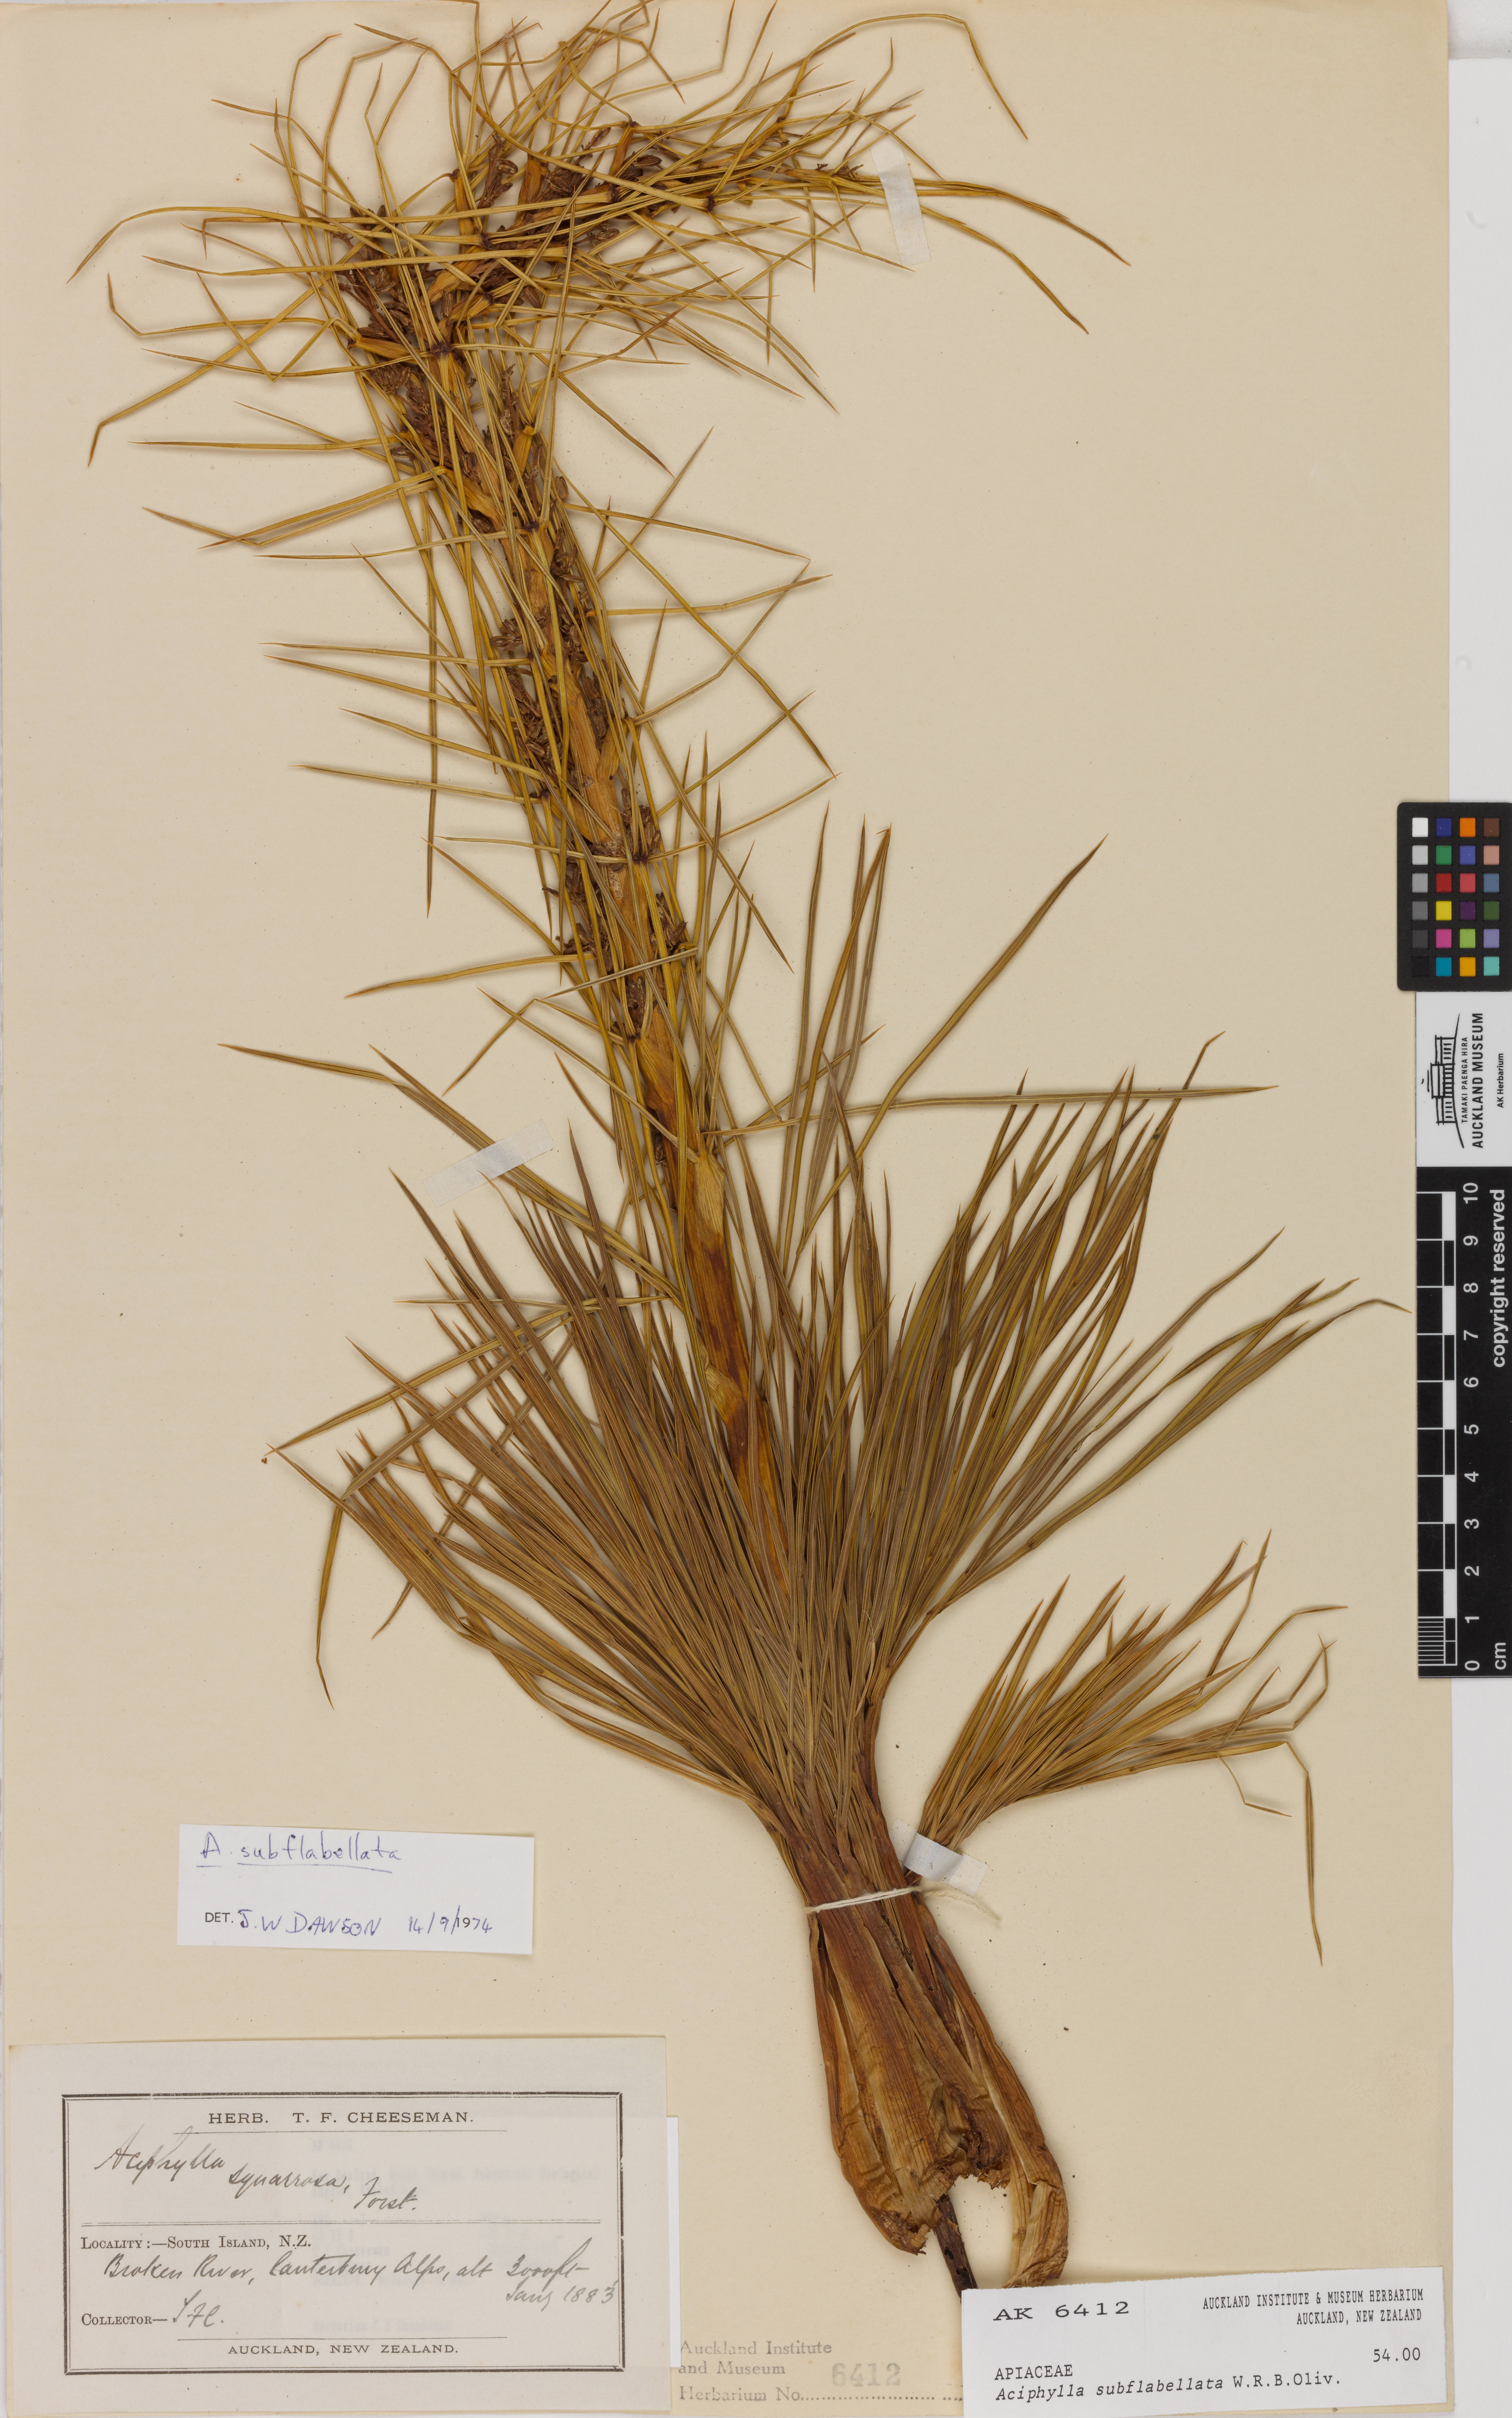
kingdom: Plantae
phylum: Tracheophyta
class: Magnoliopsida
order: Apiales
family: Apiaceae
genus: Aciphylla
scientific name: Aciphylla subflabellata
